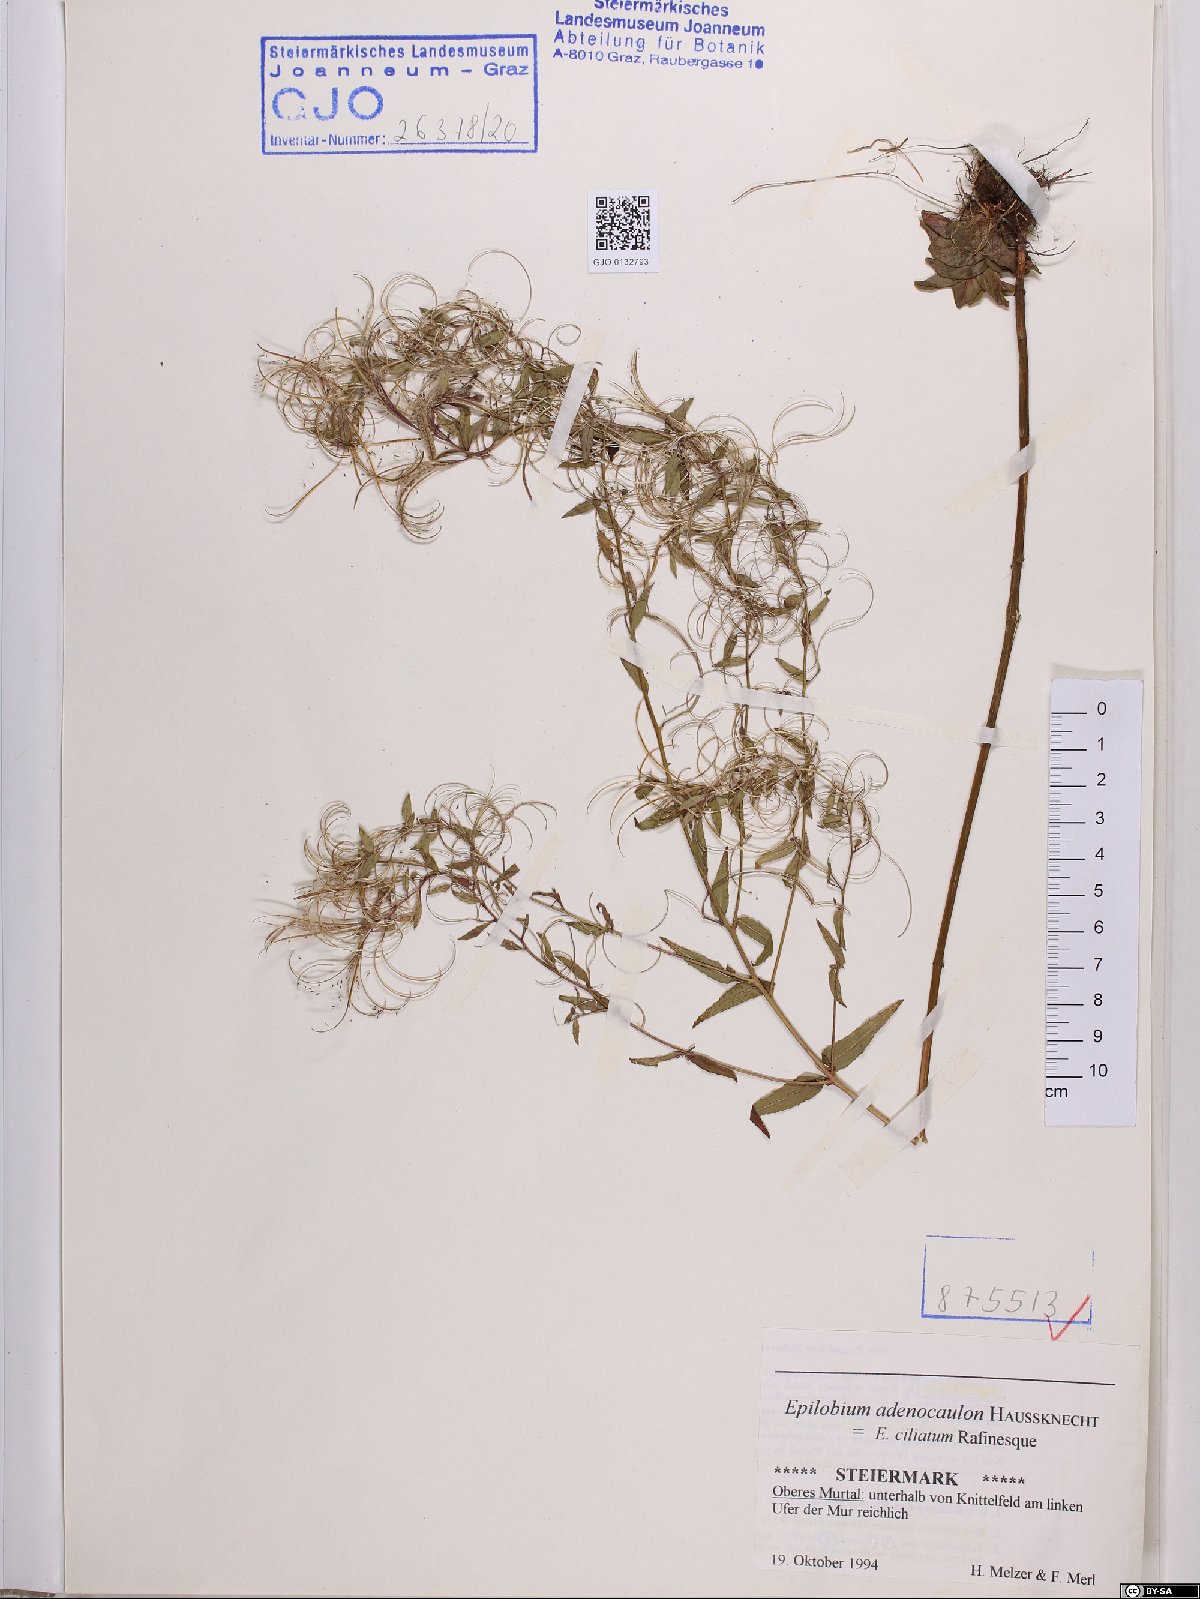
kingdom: Plantae
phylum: Tracheophyta
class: Magnoliopsida
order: Myrtales
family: Onagraceae
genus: Epilobium
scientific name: Epilobium ciliatum
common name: American willowherb
